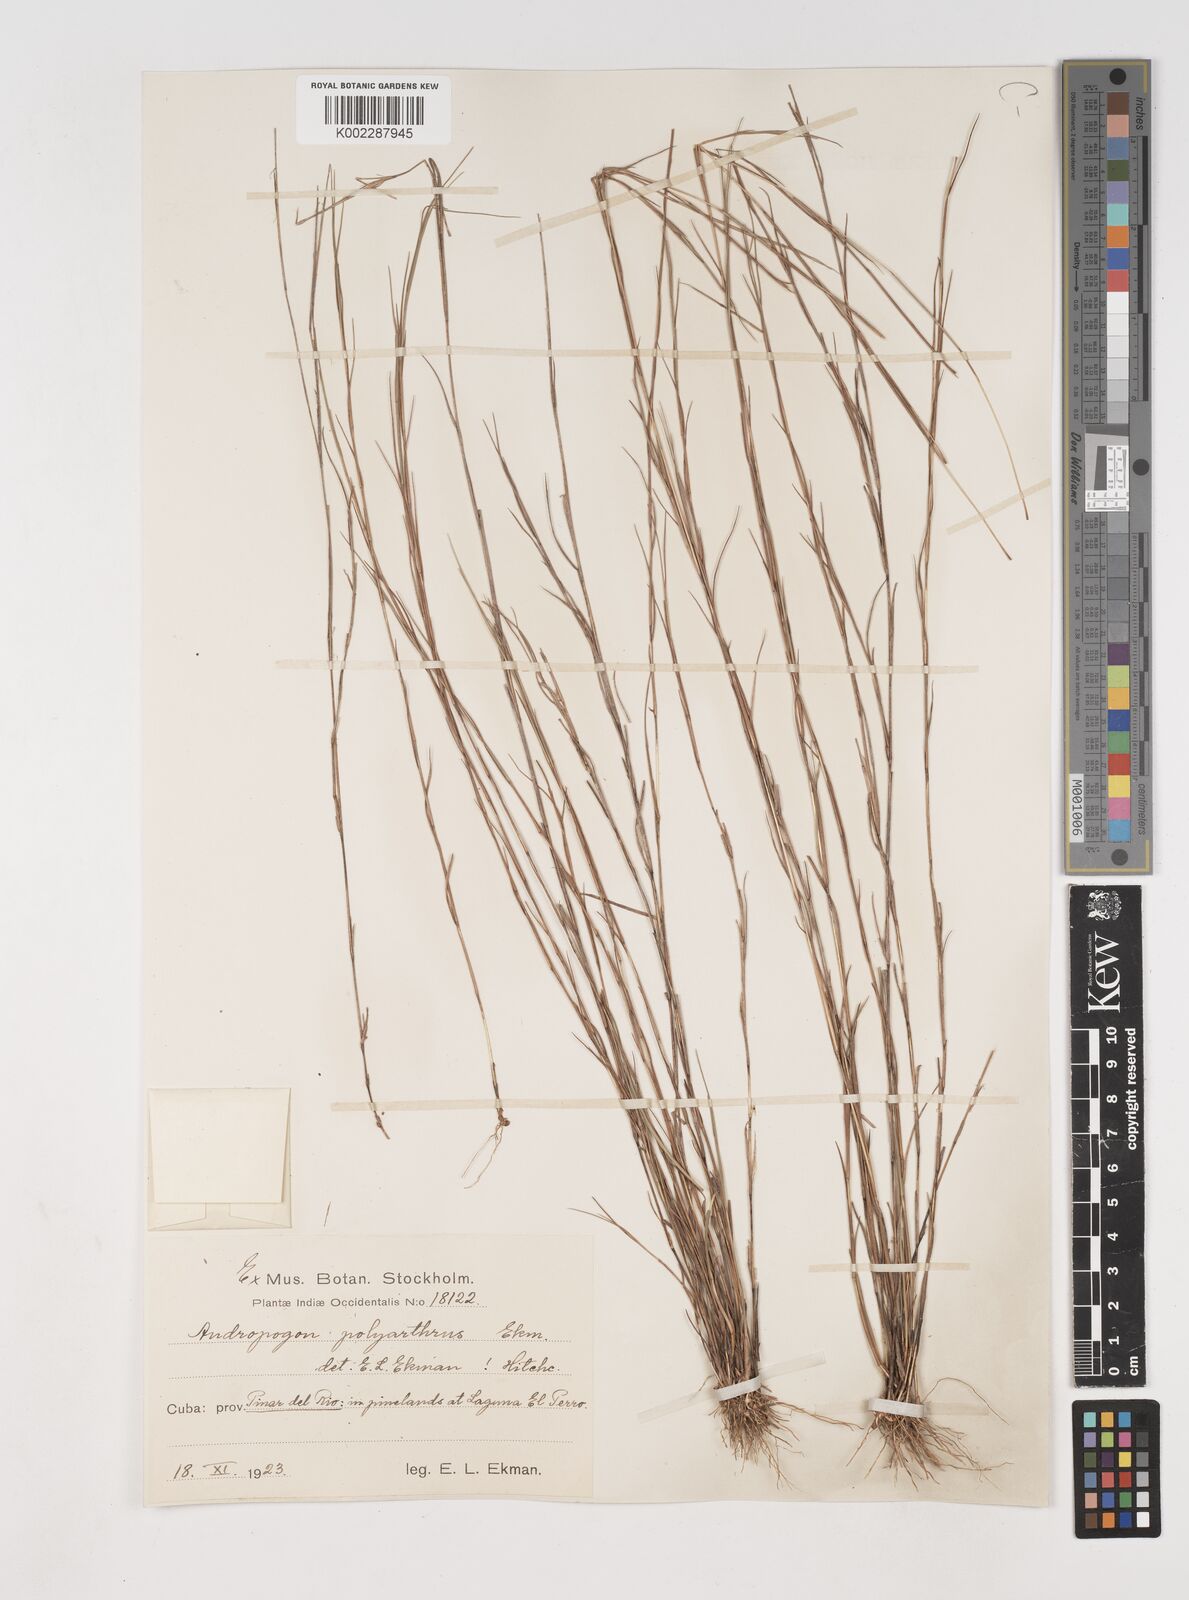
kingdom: Plantae
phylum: Tracheophyta
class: Liliopsida
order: Poales
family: Poaceae
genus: Schizachyrium
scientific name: Schizachyrium cubense
